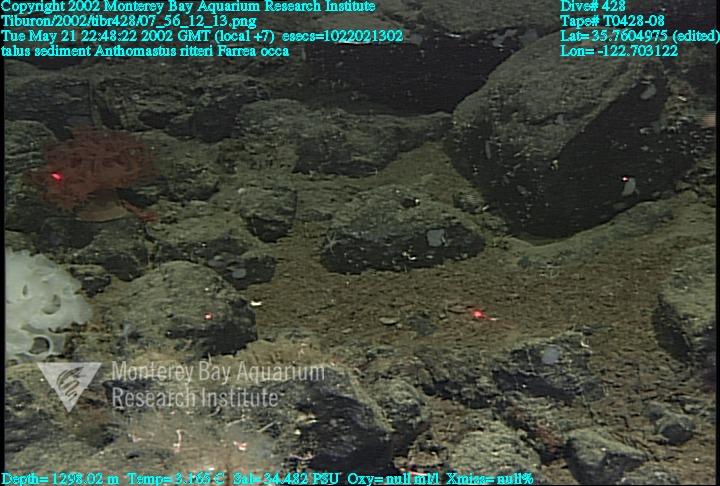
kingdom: Animalia
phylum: Porifera
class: Hexactinellida
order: Sceptrulophora
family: Farreidae
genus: Farrea
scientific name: Farrea occa
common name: Reversed glass sponge
